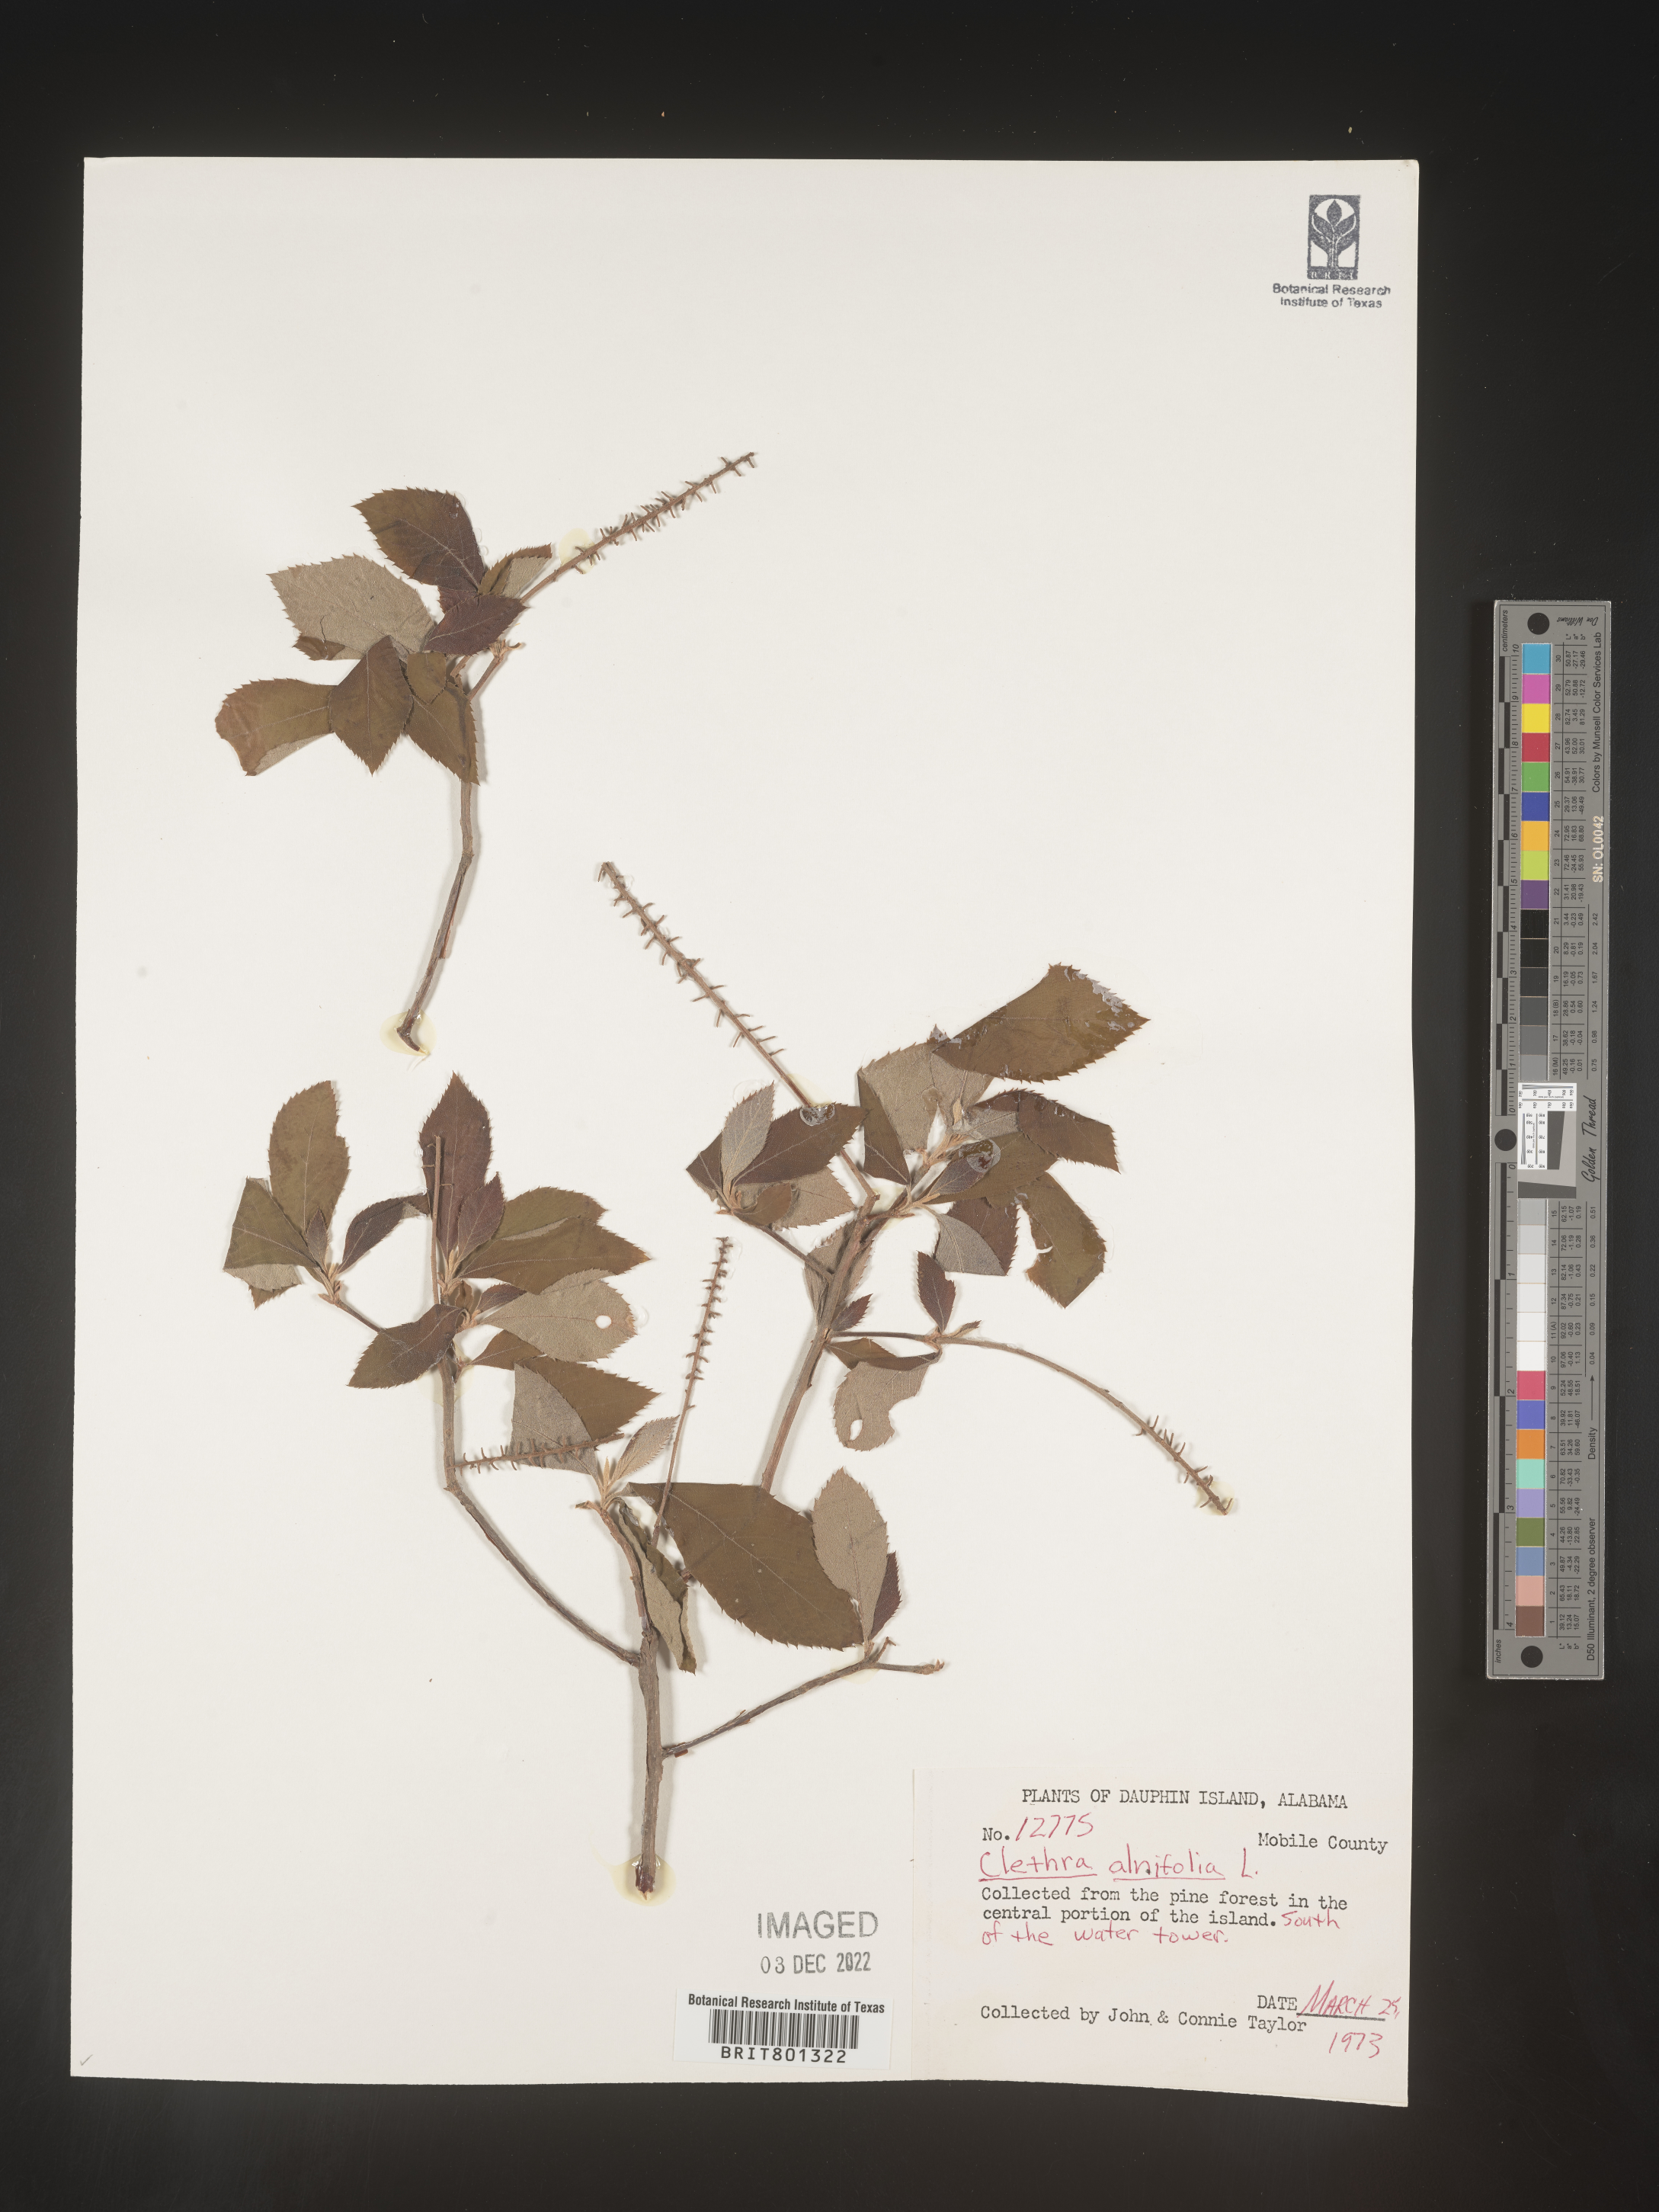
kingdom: Plantae
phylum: Tracheophyta
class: Magnoliopsida
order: Ericales
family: Clethraceae
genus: Clethra
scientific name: Clethra alnifolia
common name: Sweet pepperbush
